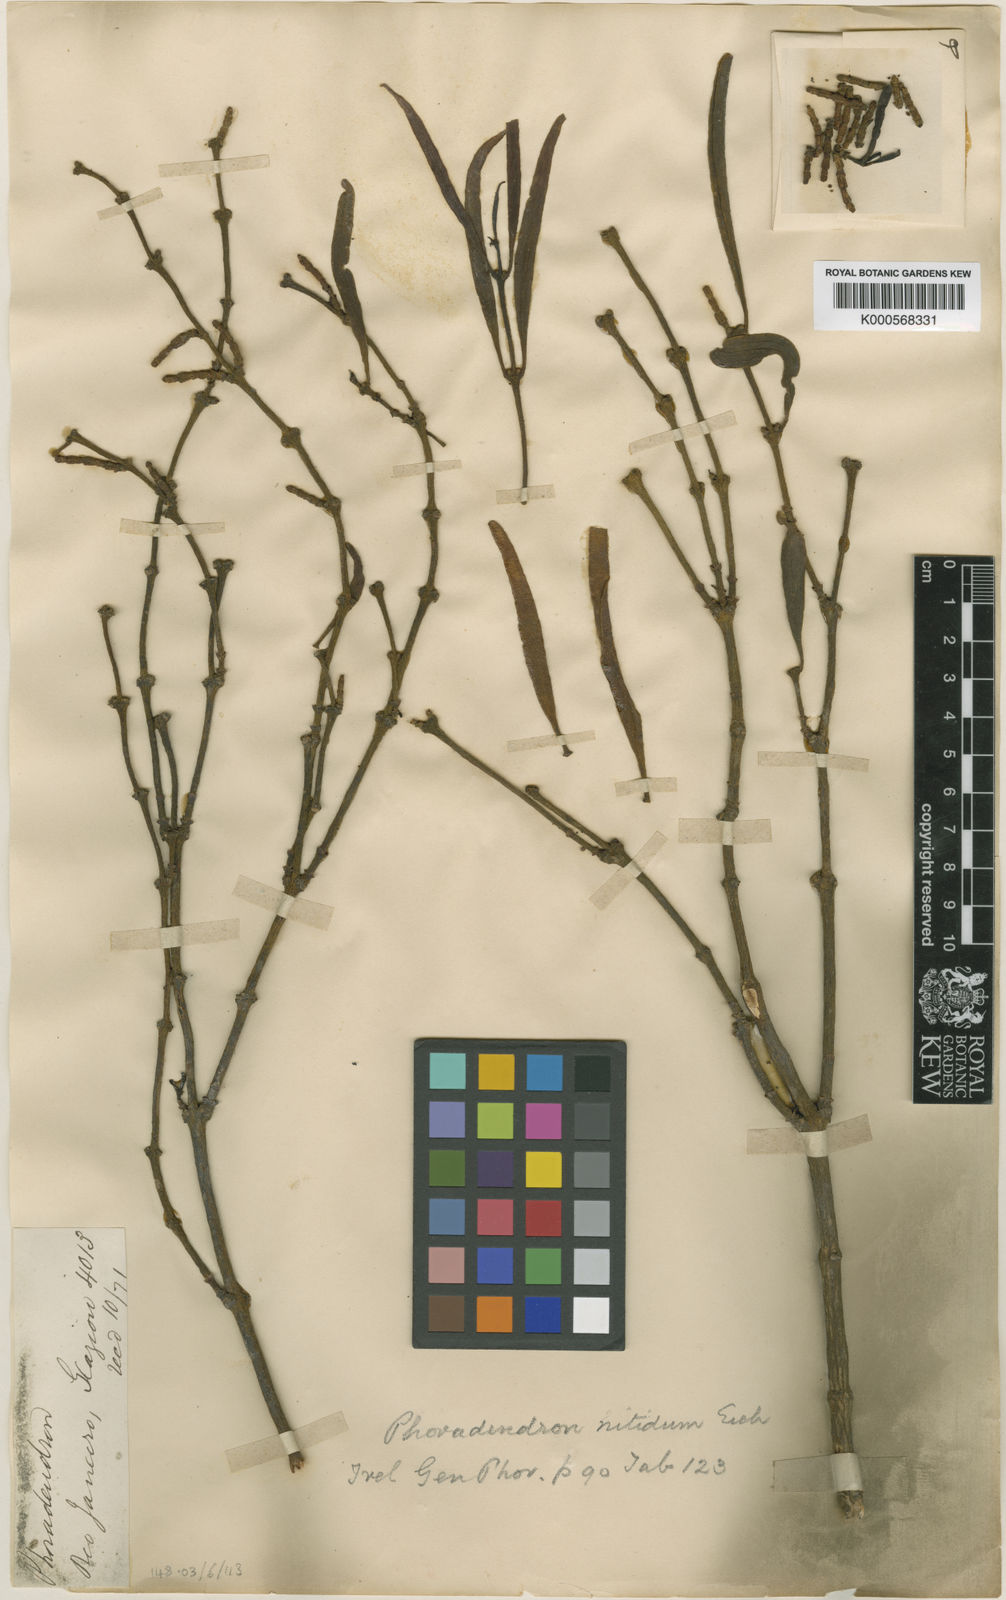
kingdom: Plantae
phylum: Tracheophyta
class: Magnoliopsida
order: Santalales
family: Viscaceae
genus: Phoradendron
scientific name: Phoradendron falcifrons
